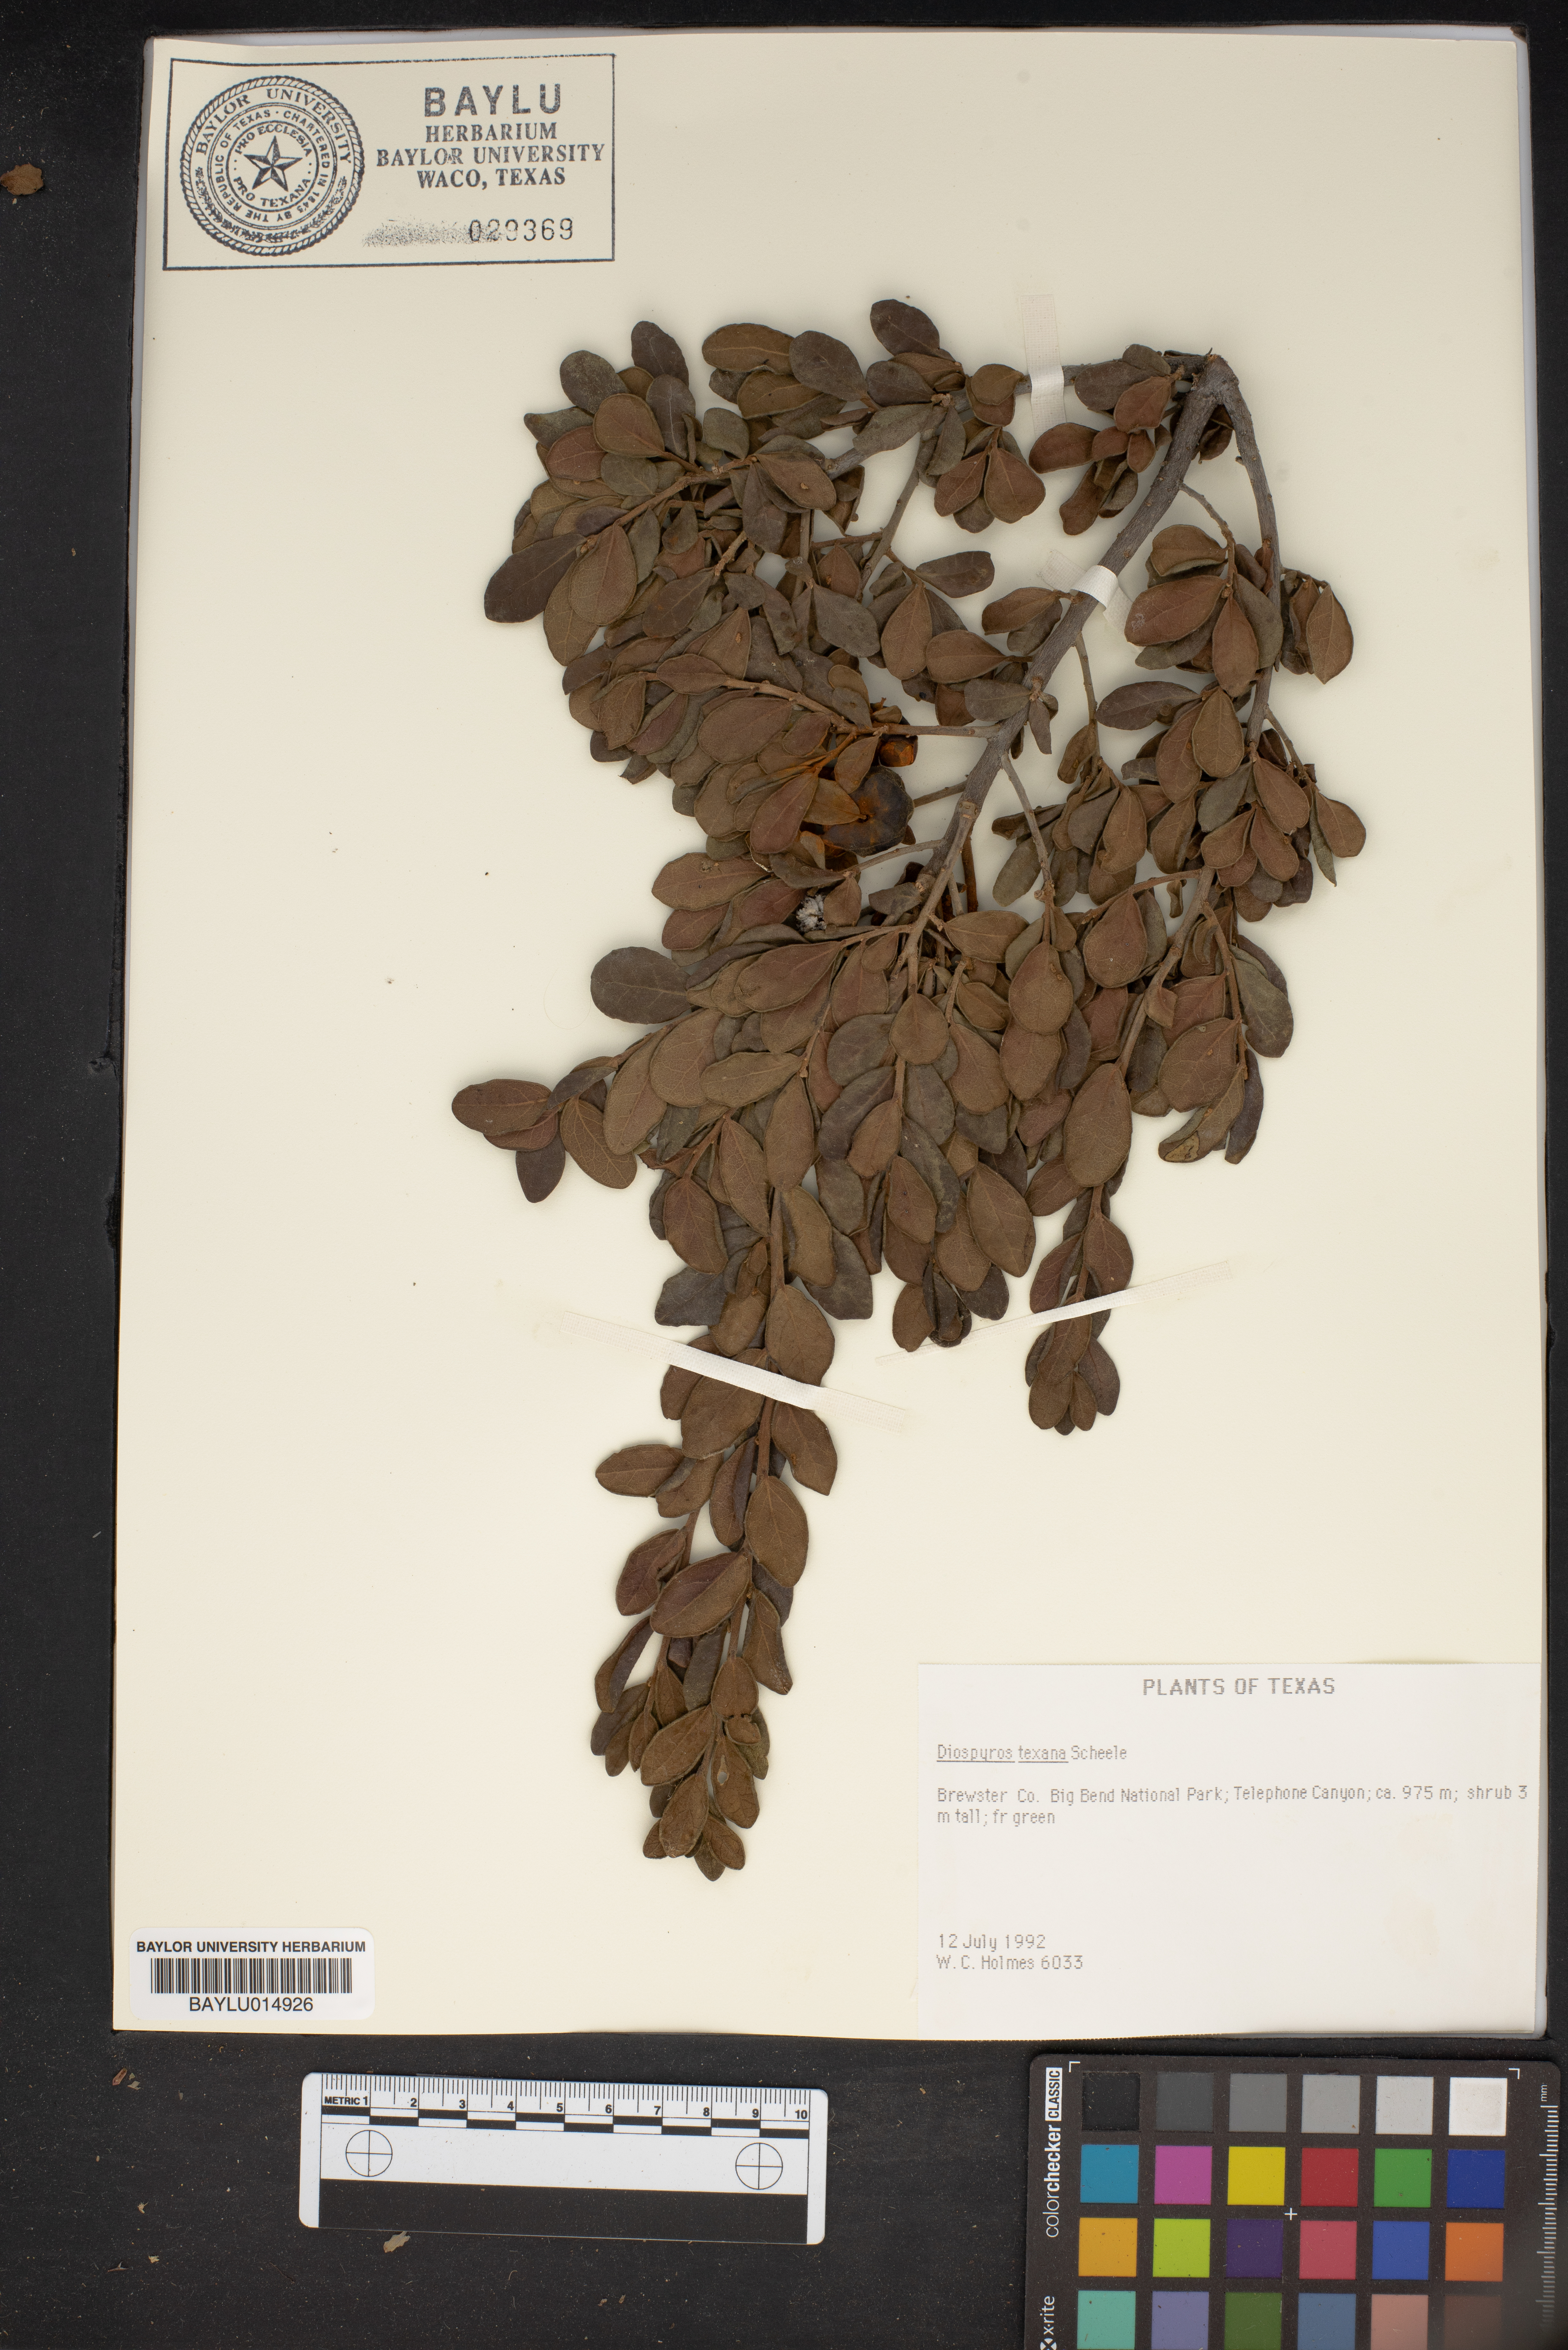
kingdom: Plantae
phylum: Tracheophyta
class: Magnoliopsida
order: Ericales
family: Ebenaceae
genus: Diospyros
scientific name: Diospyros texana
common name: Texas persimmon
